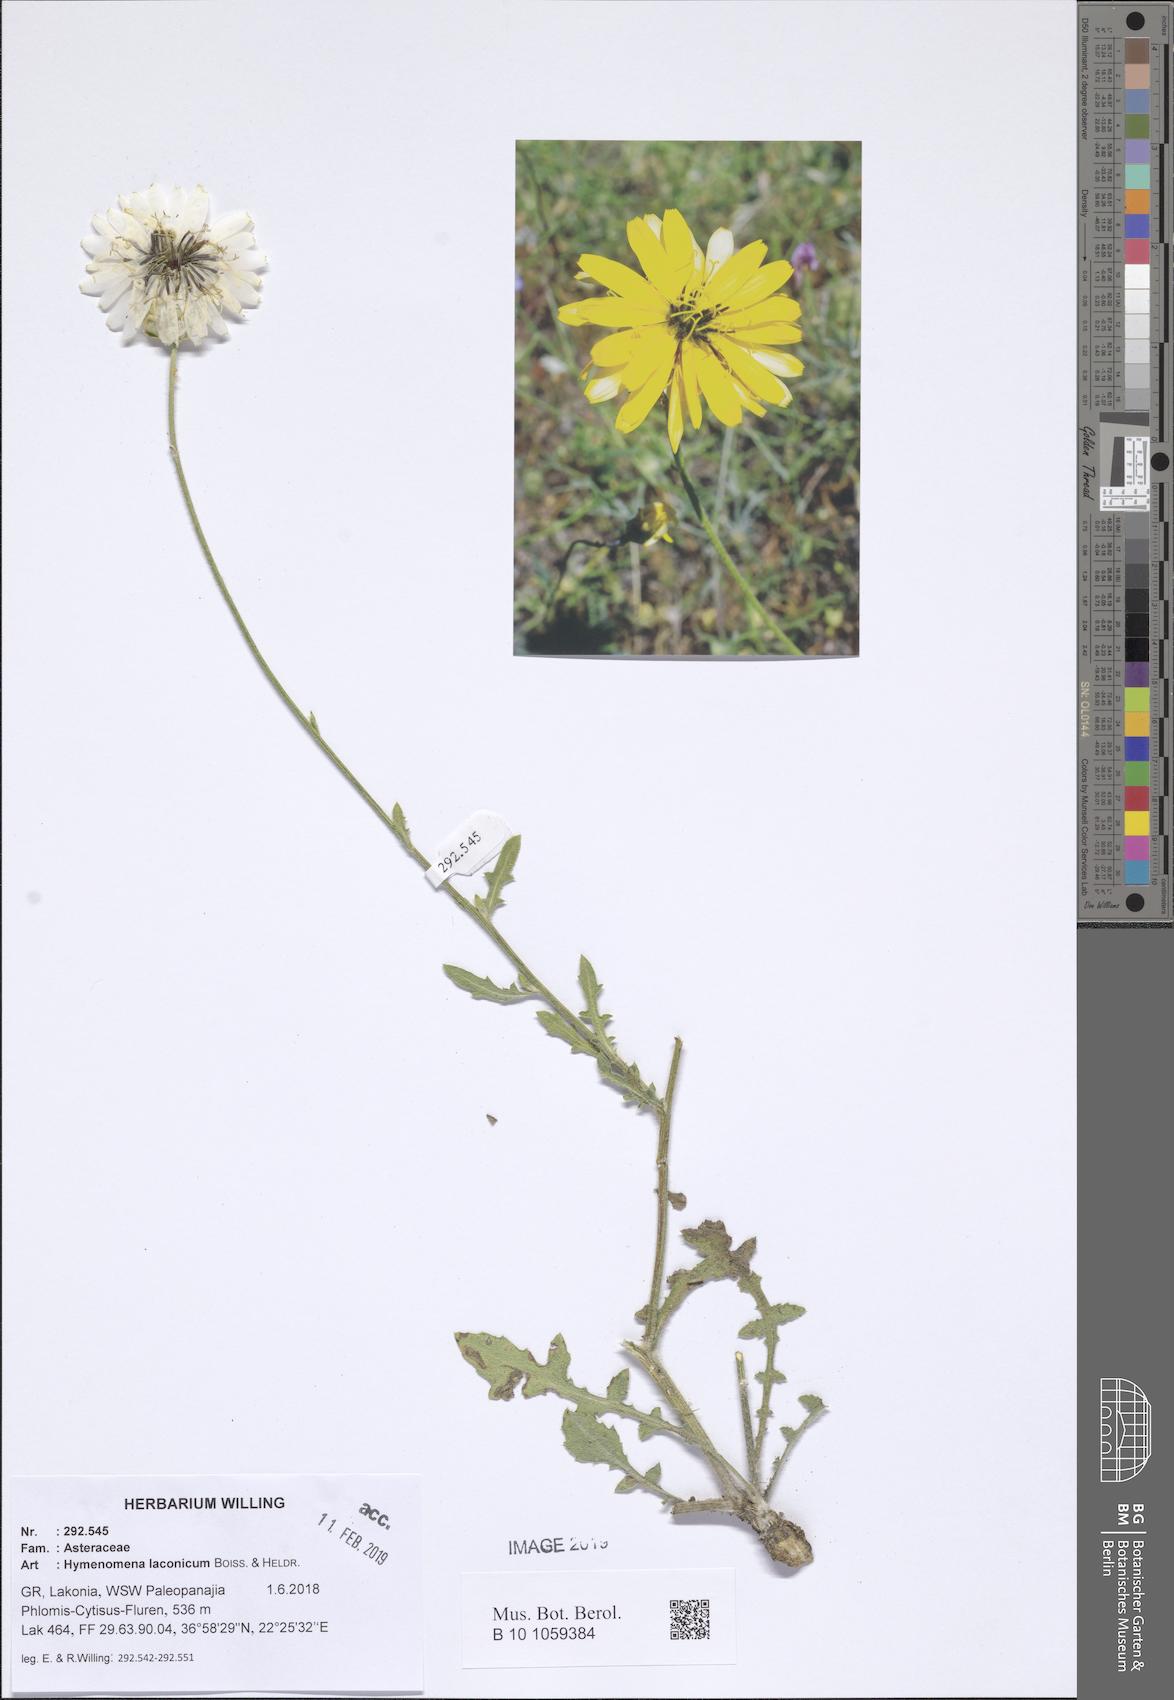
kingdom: Plantae
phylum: Tracheophyta
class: Magnoliopsida
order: Asterales
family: Asteraceae
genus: Hymenonema
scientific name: Hymenonema laconicum
